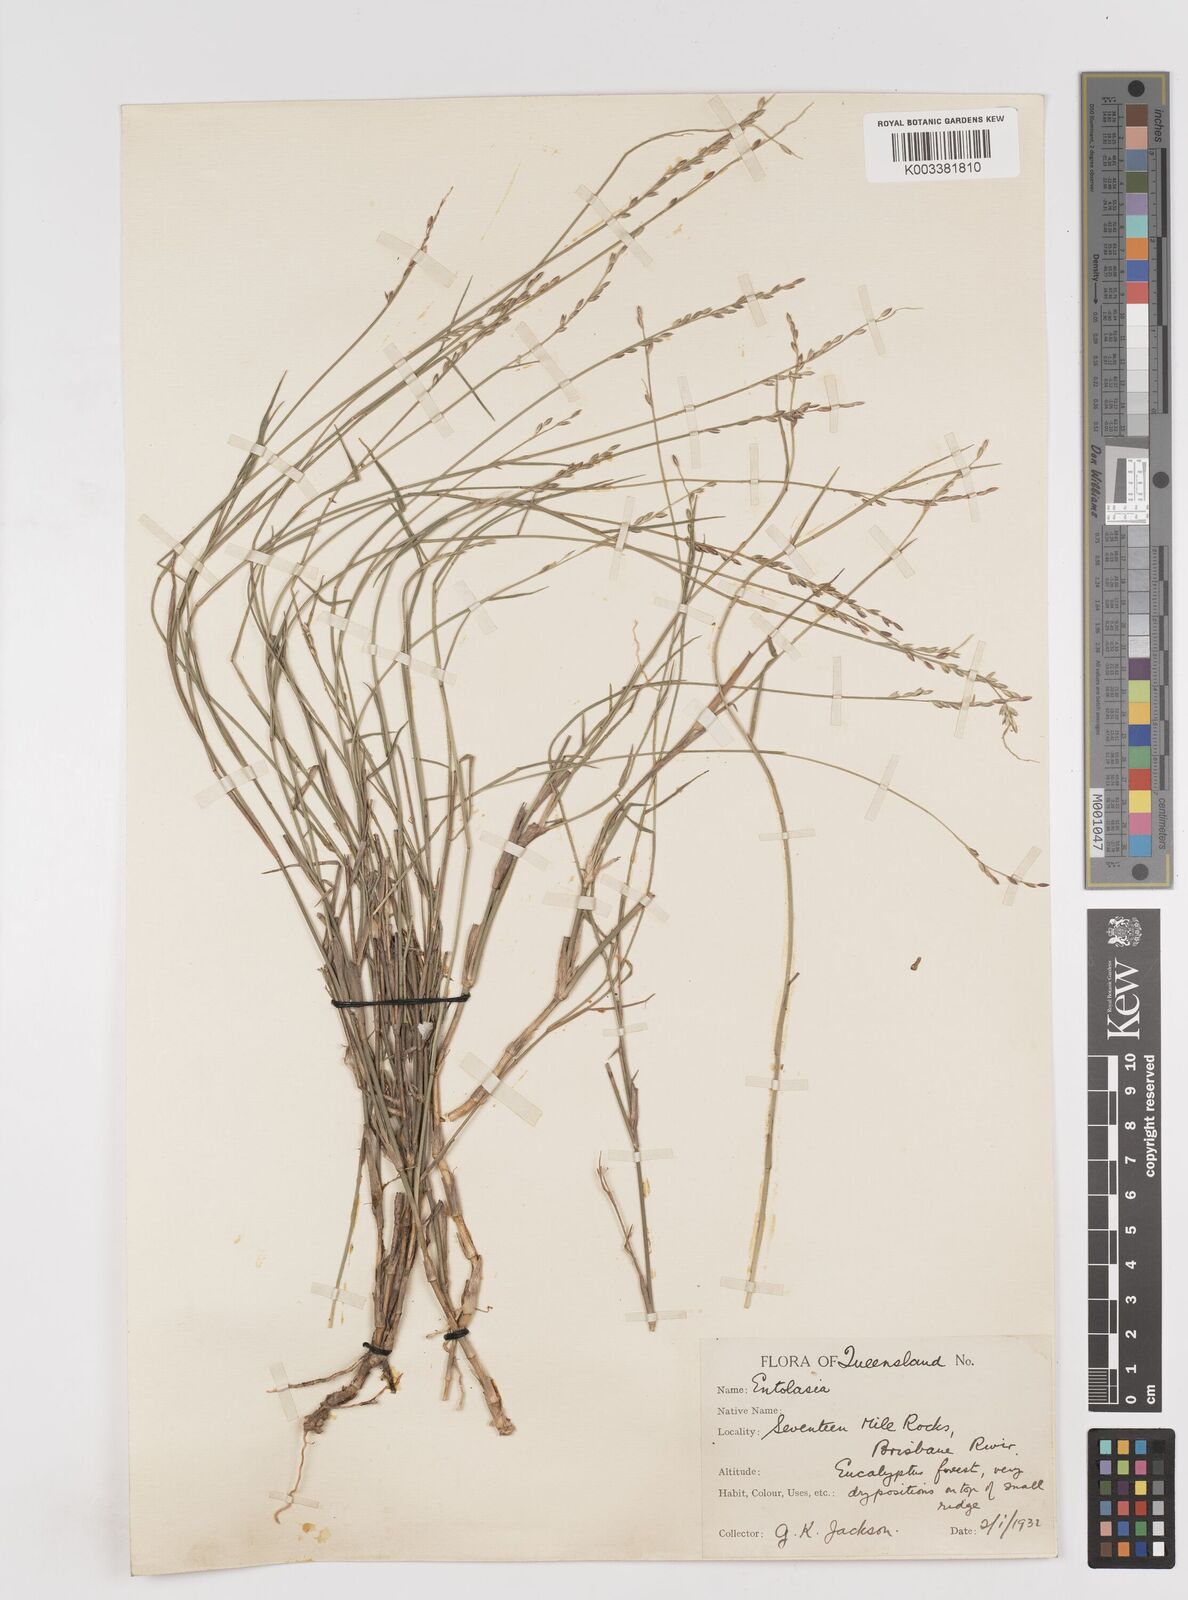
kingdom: Plantae
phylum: Tracheophyta
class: Liliopsida
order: Poales
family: Poaceae
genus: Entolasia
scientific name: Entolasia whiteana
